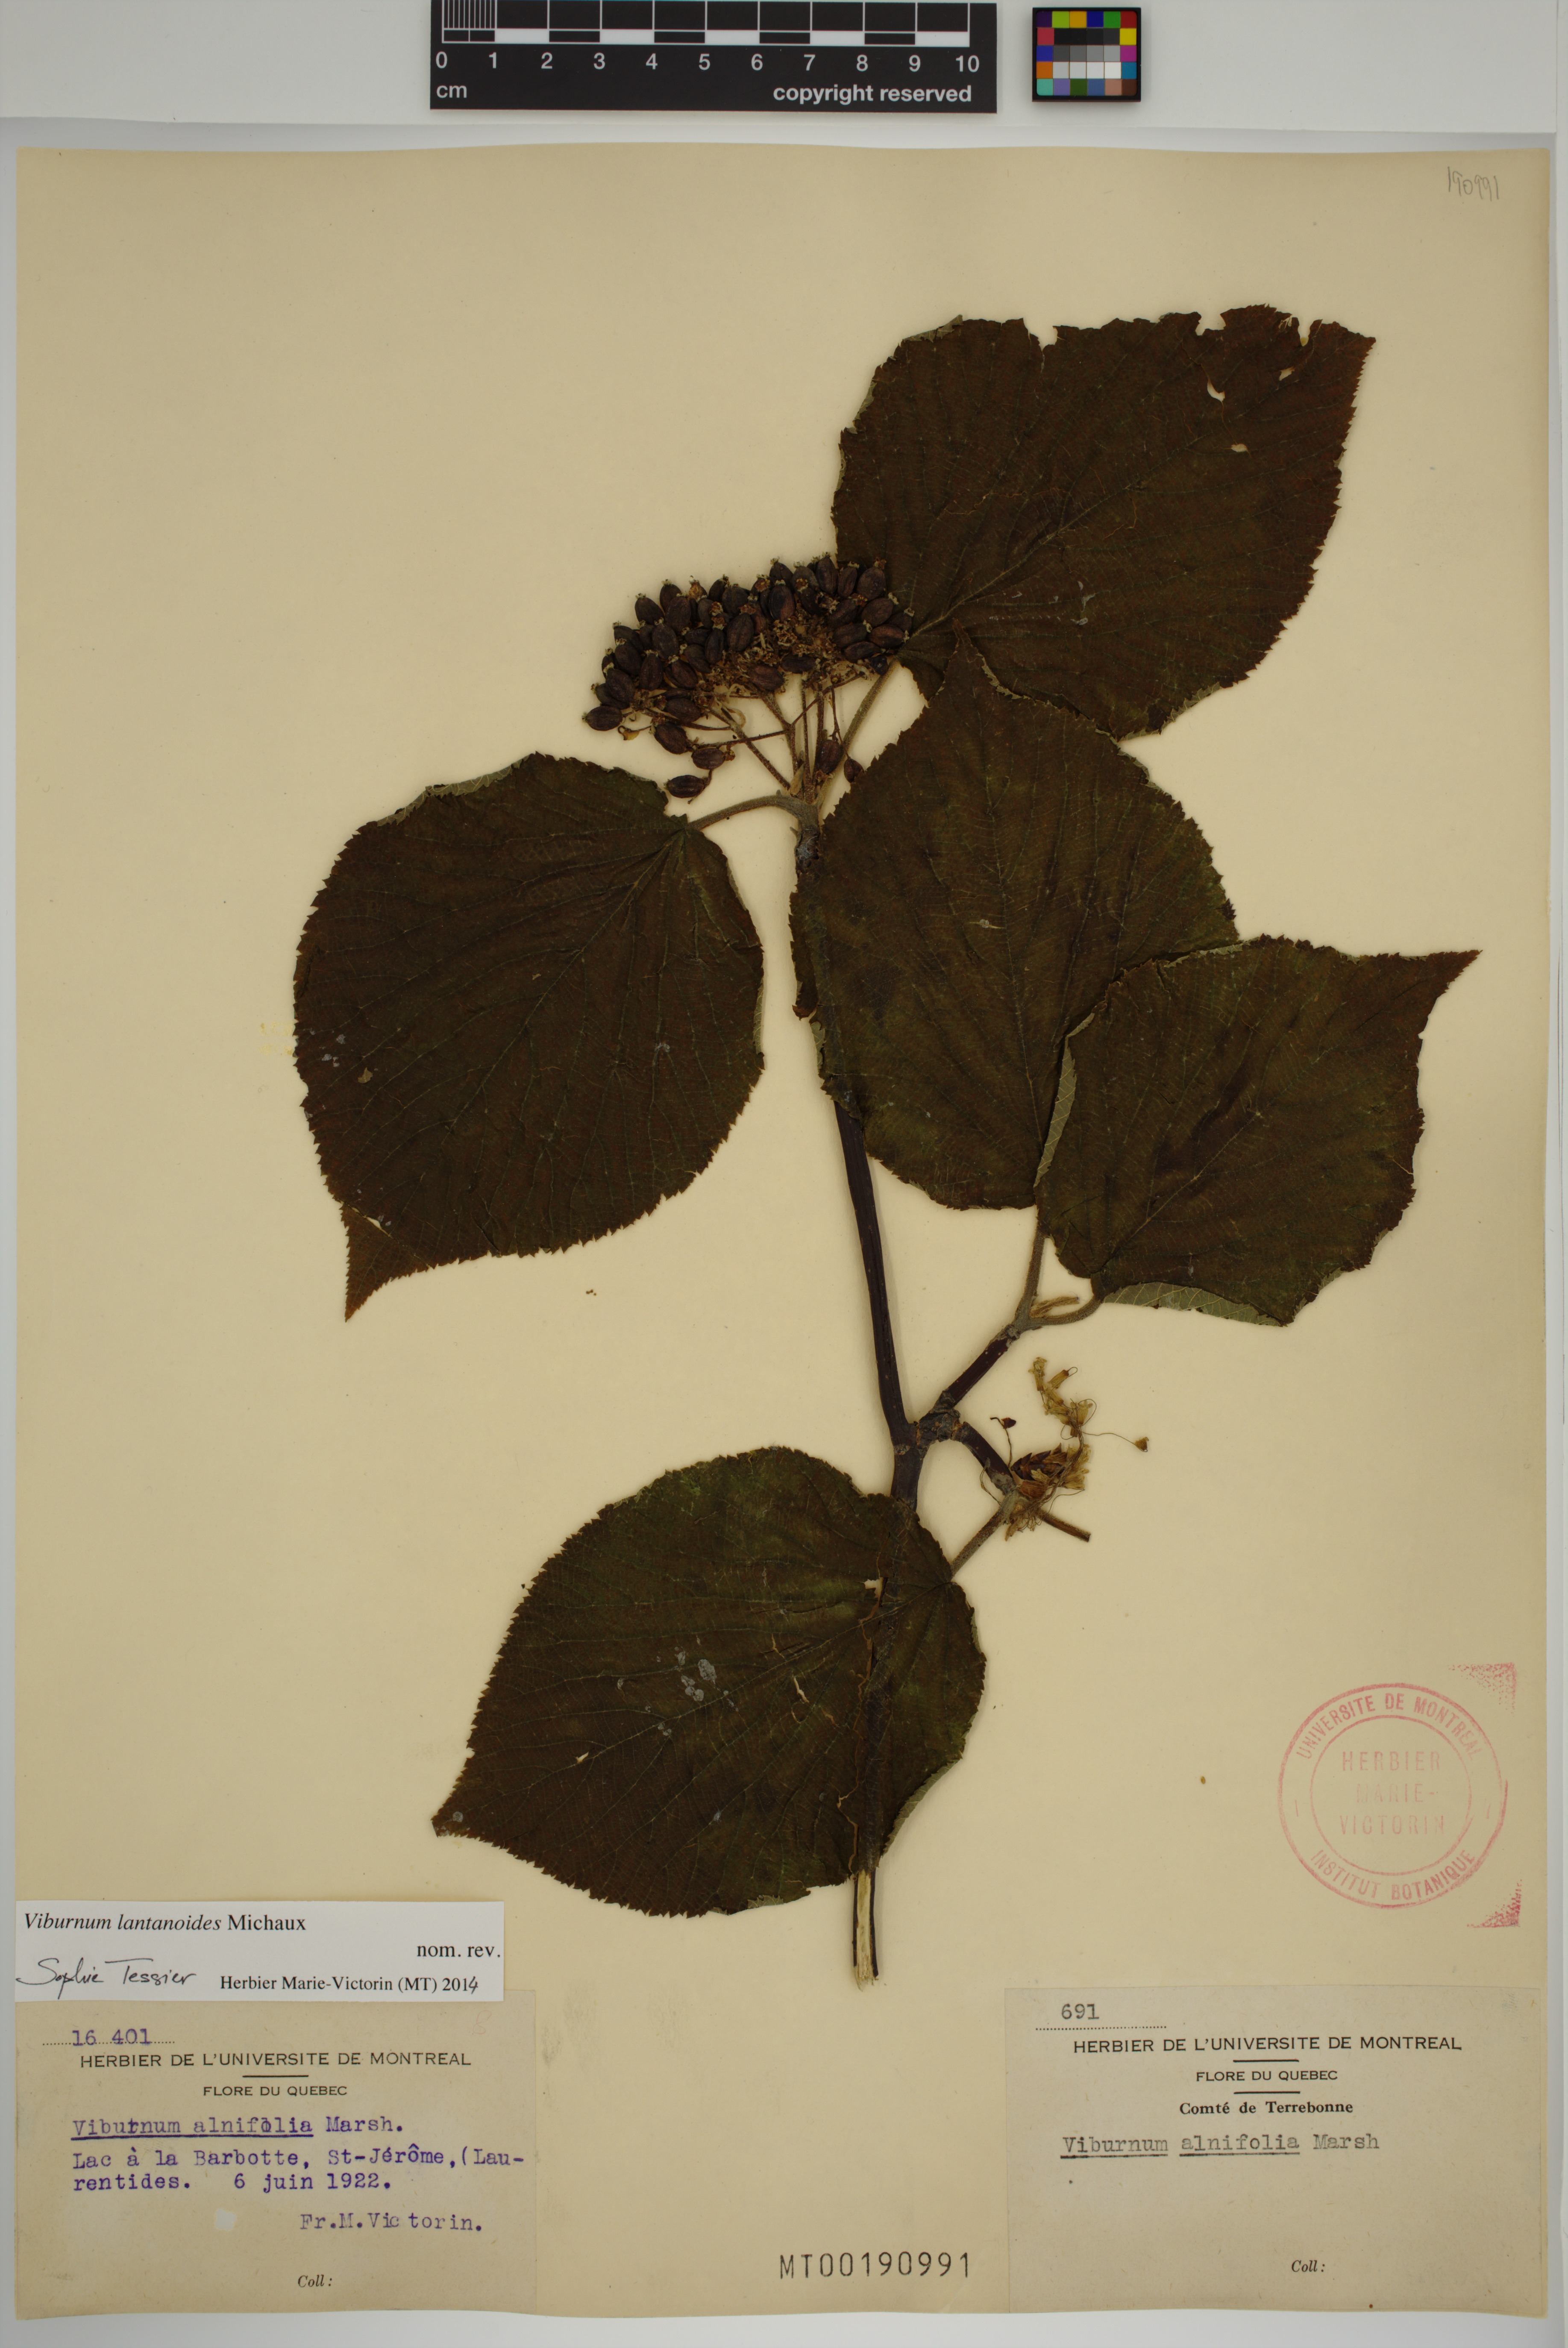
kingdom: Plantae
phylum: Tracheophyta
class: Magnoliopsida
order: Dipsacales
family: Viburnaceae
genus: Viburnum
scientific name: Viburnum lantanoides
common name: Hobblebush
